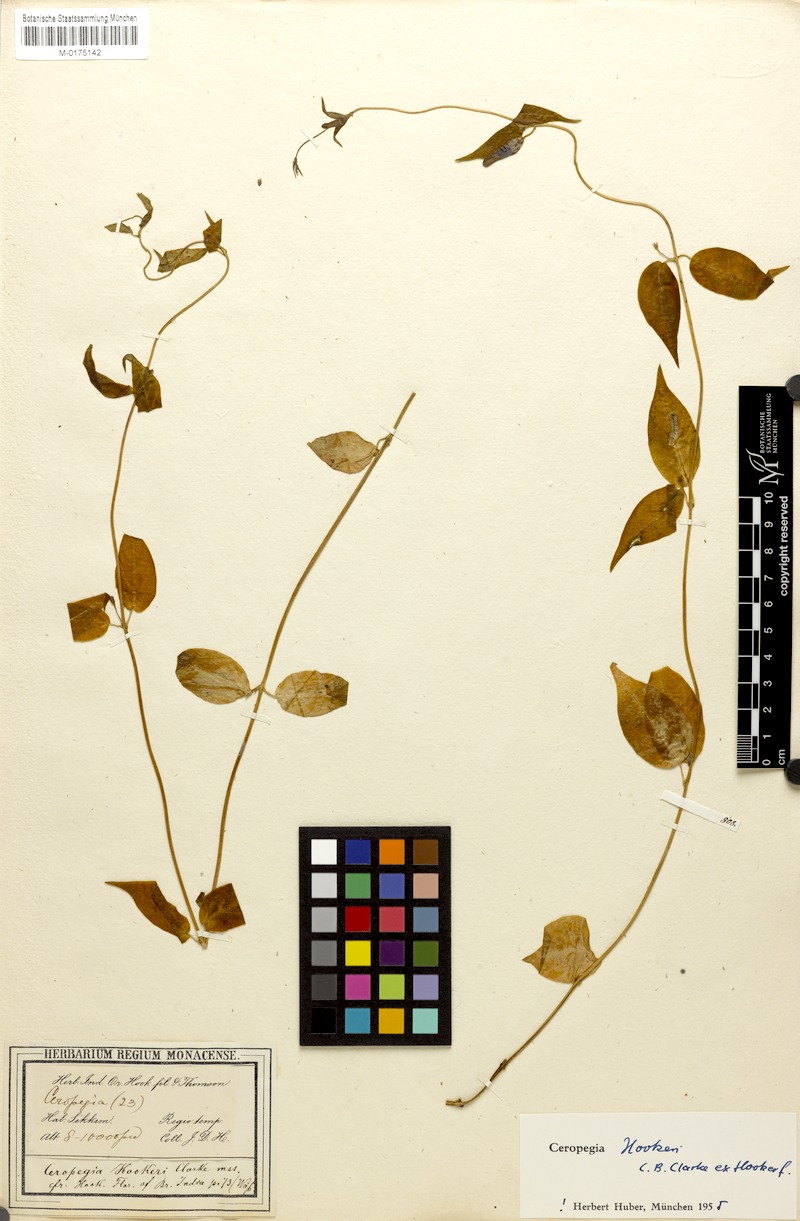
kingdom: Plantae
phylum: Tracheophyta
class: Magnoliopsida
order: Gentianales
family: Apocynaceae
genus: Ceropegia
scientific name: Ceropegia hookeri
